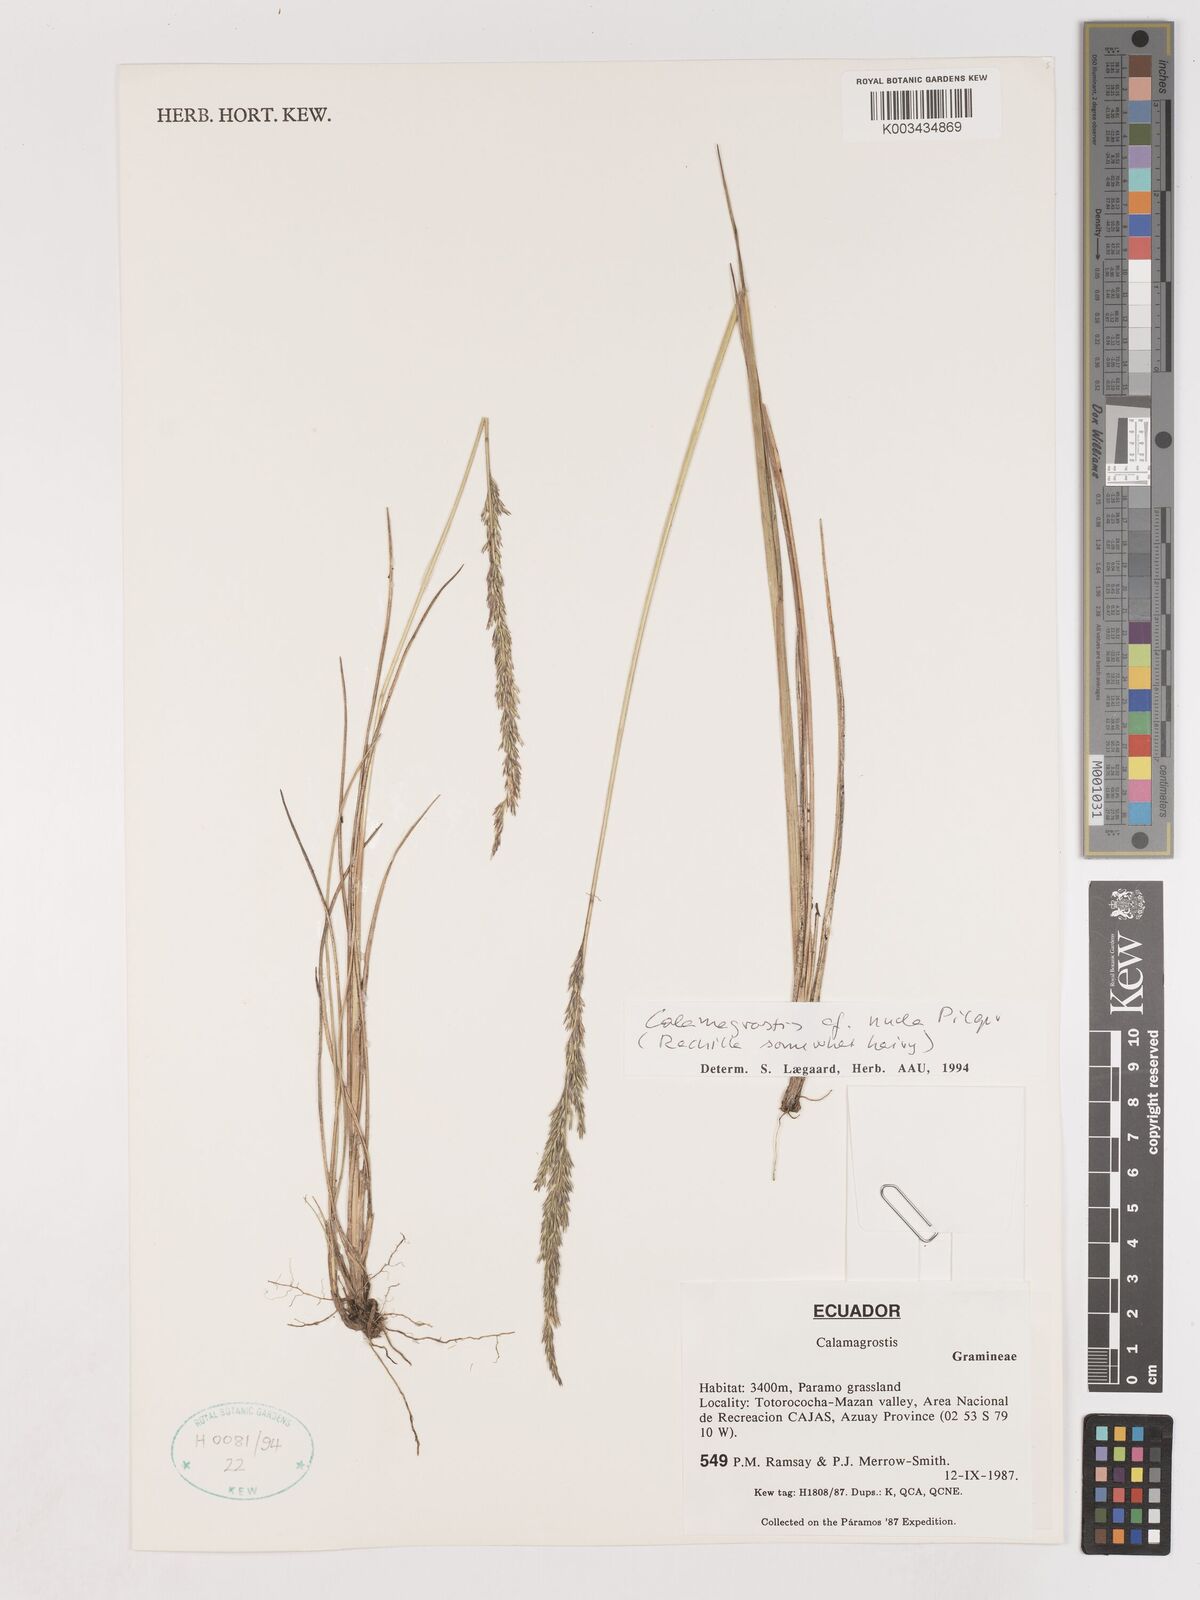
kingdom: Plantae
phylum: Tracheophyta
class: Liliopsida
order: Poales
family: Poaceae
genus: Calamagrostis
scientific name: Calamagrostis bogotensis
